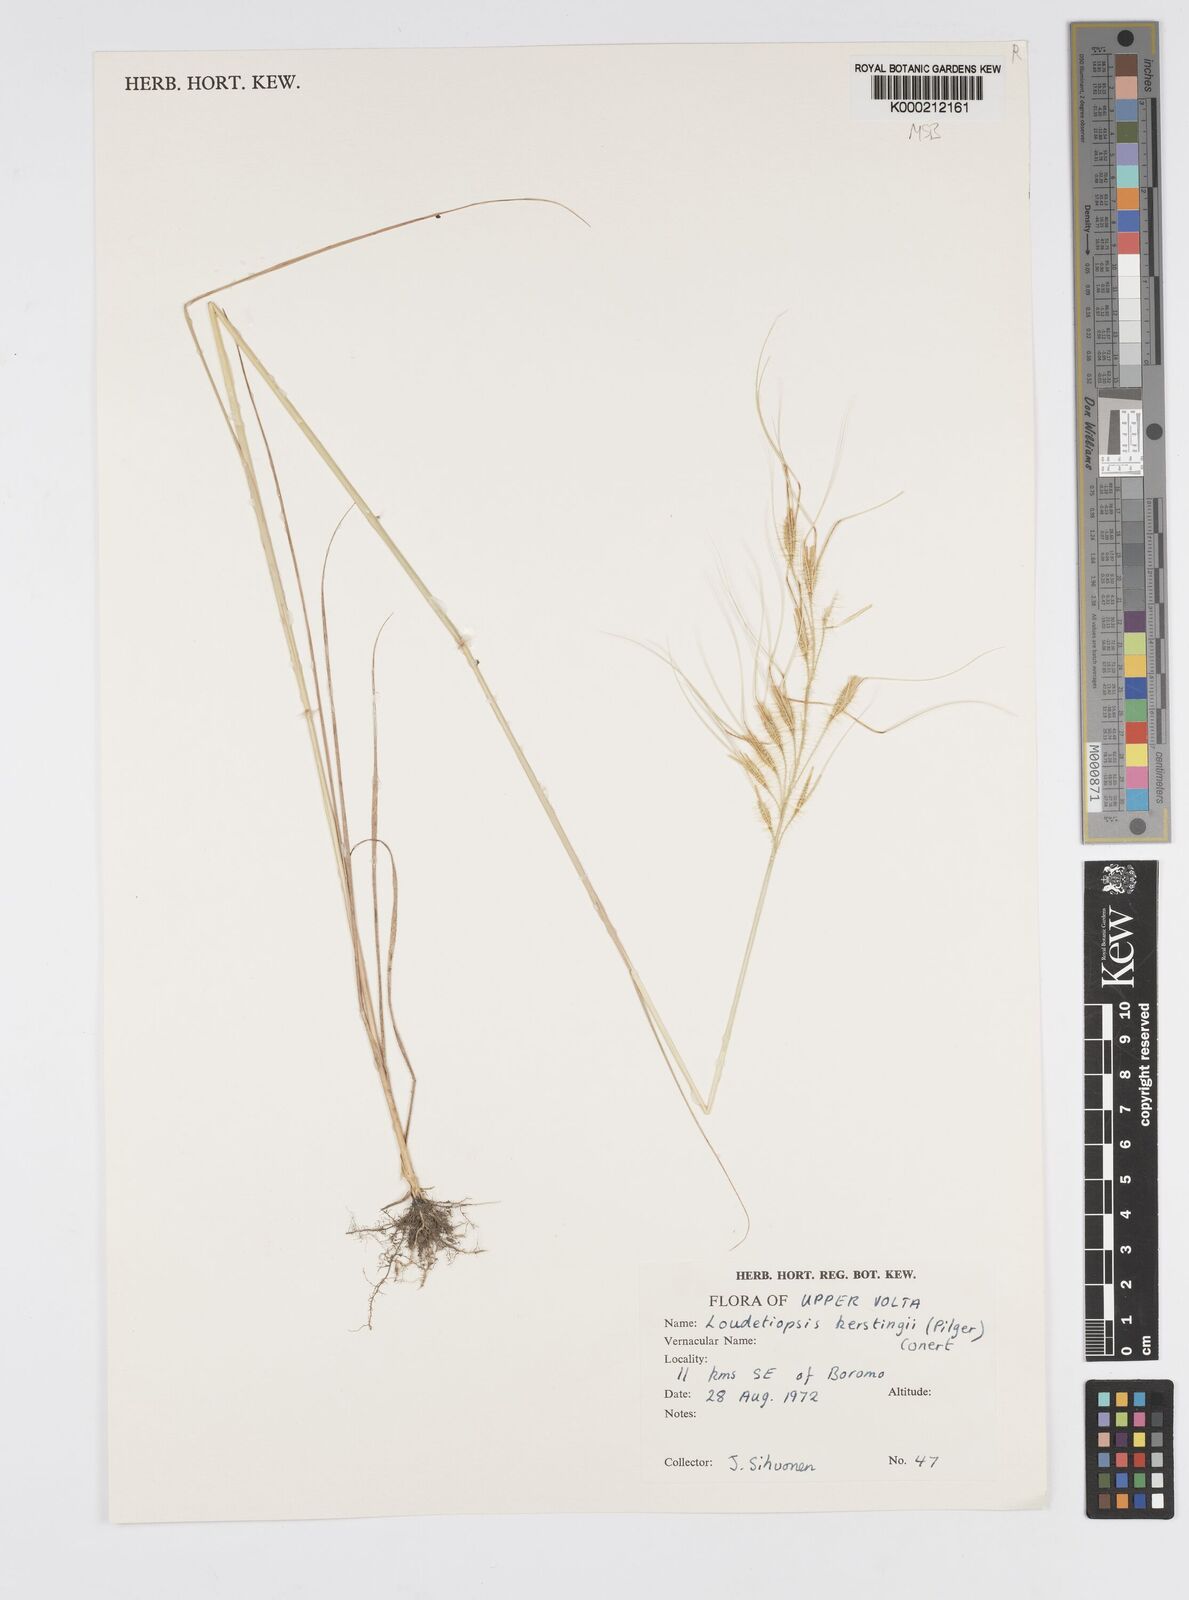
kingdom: Plantae
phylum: Tracheophyta
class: Liliopsida
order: Poales
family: Poaceae
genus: Loudetiopsis
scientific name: Loudetiopsis kerstingii
